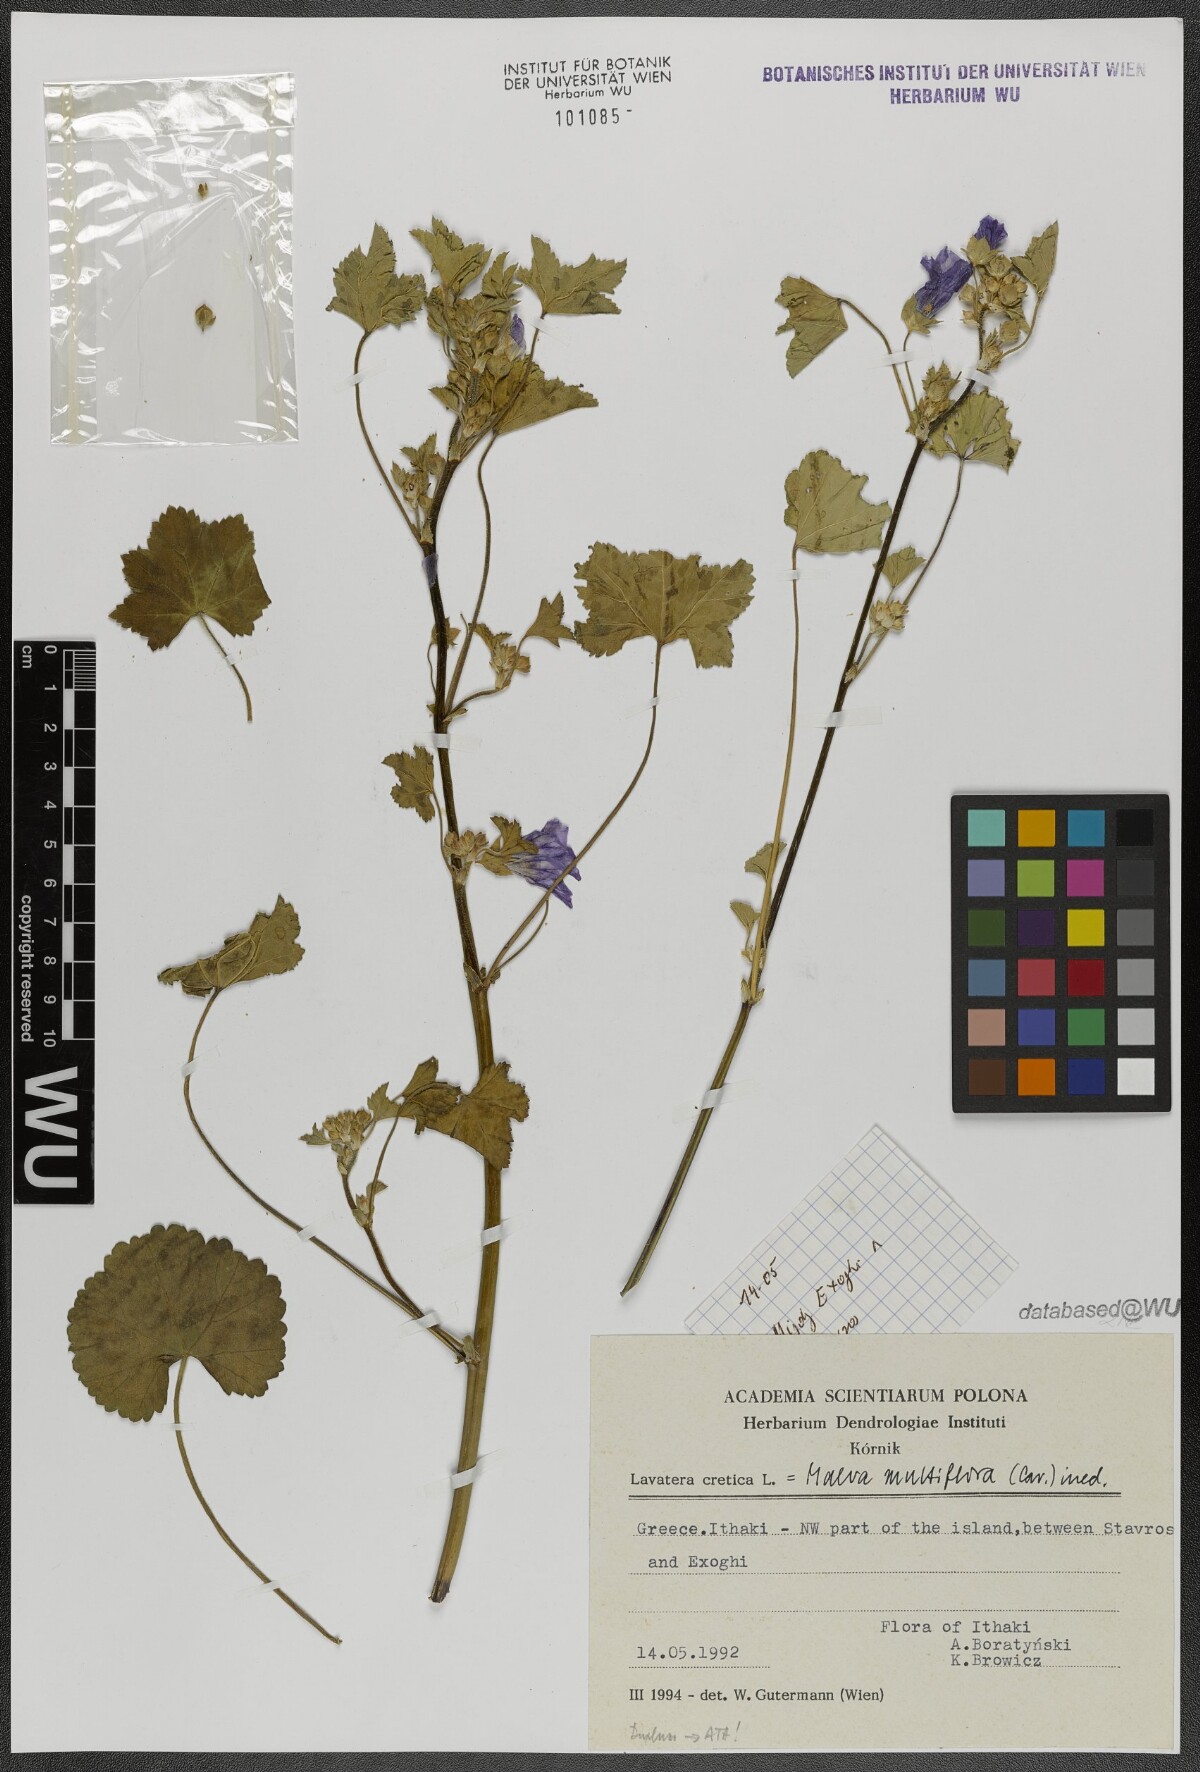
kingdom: Plantae
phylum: Tracheophyta
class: Magnoliopsida
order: Malvales
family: Malvaceae
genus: Malva
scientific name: Malva multiflora
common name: Cheeseweed
